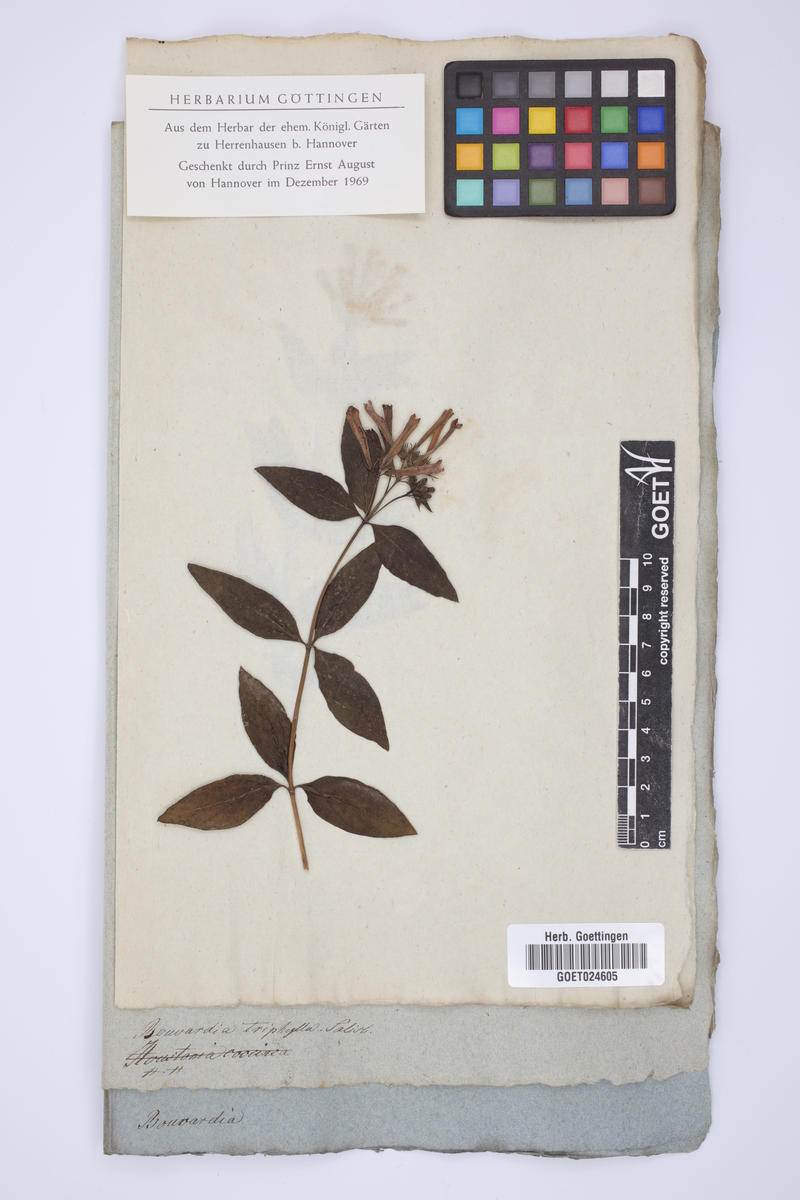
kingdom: Plantae
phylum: Tracheophyta
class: Magnoliopsida
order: Gentianales
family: Rubiaceae
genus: Bouvardia
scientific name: Bouvardia ternifolia
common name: Scarlet bouvardia
